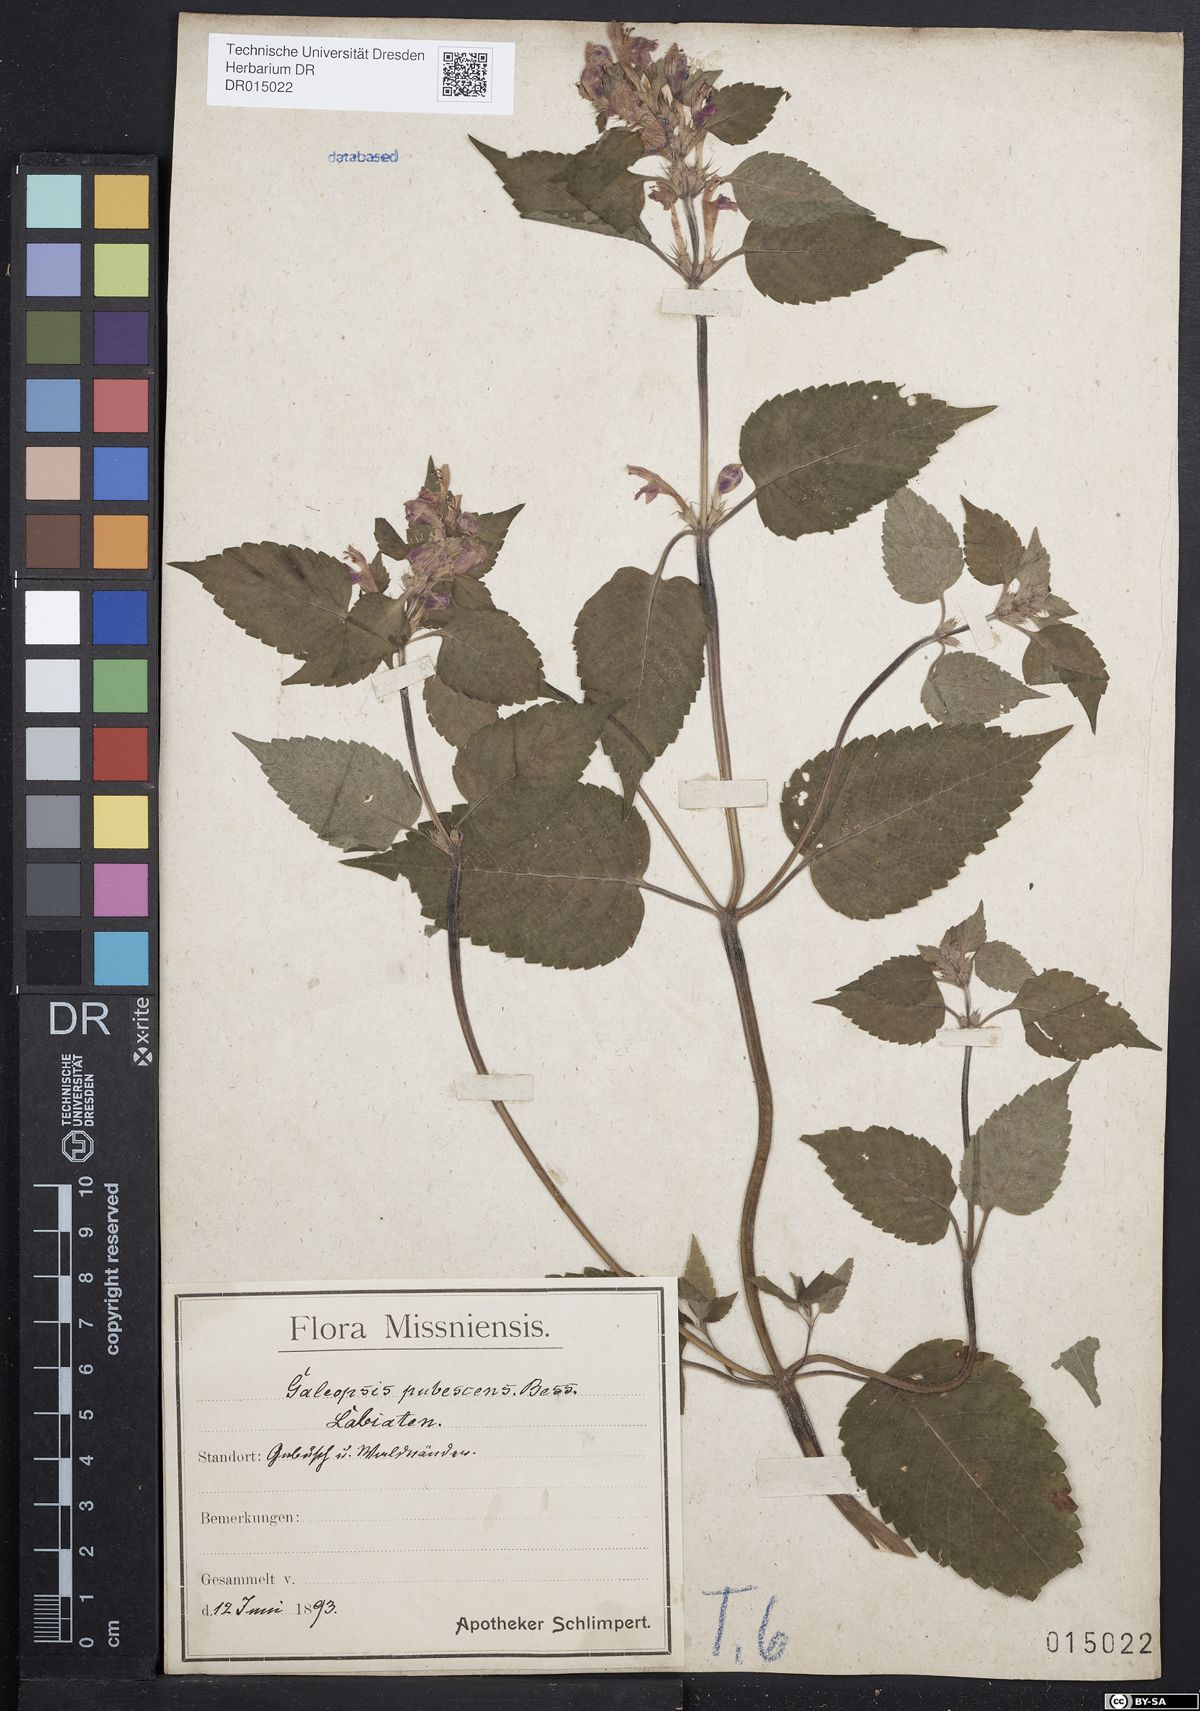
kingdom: Plantae
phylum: Tracheophyta
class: Magnoliopsida
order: Lamiales
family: Lamiaceae
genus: Galeopsis
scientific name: Galeopsis pubescens
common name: Downy hemp-nettle
